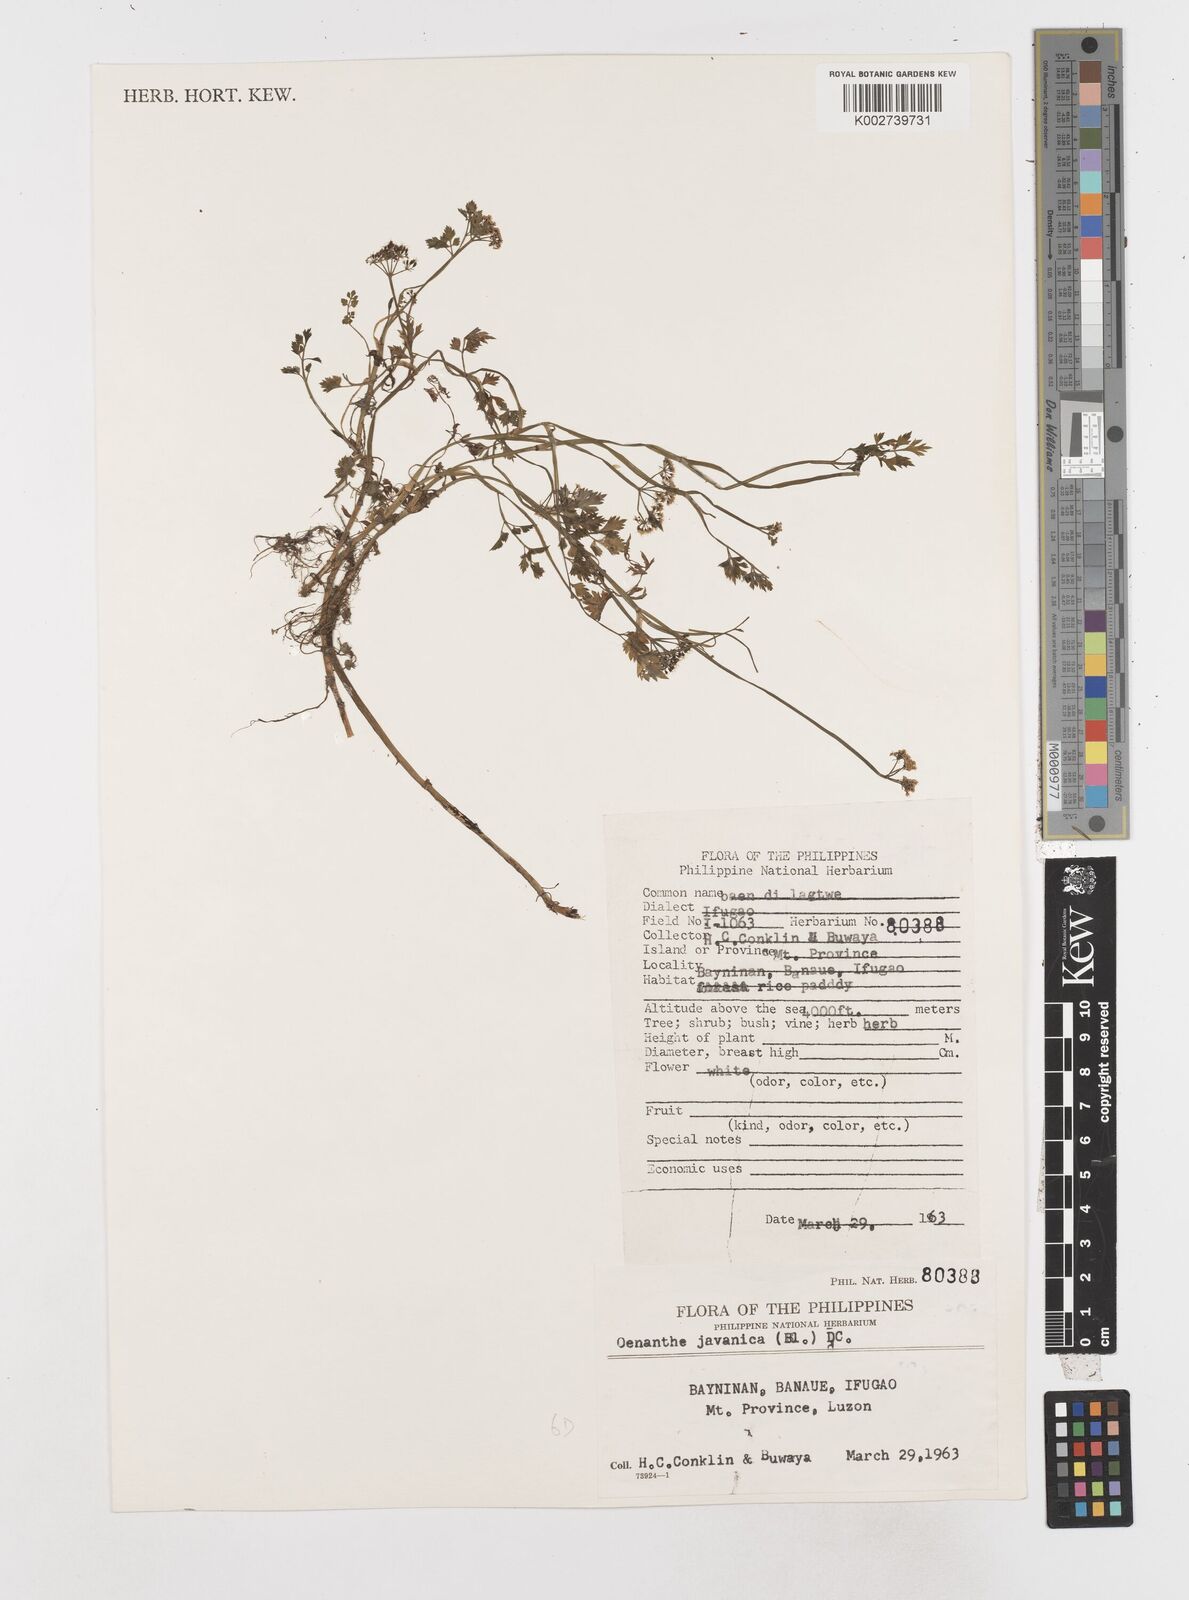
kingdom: Plantae
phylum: Tracheophyta
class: Magnoliopsida
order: Apiales
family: Apiaceae
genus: Oenanthe
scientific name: Oenanthe javanica
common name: Java water-dropwort
